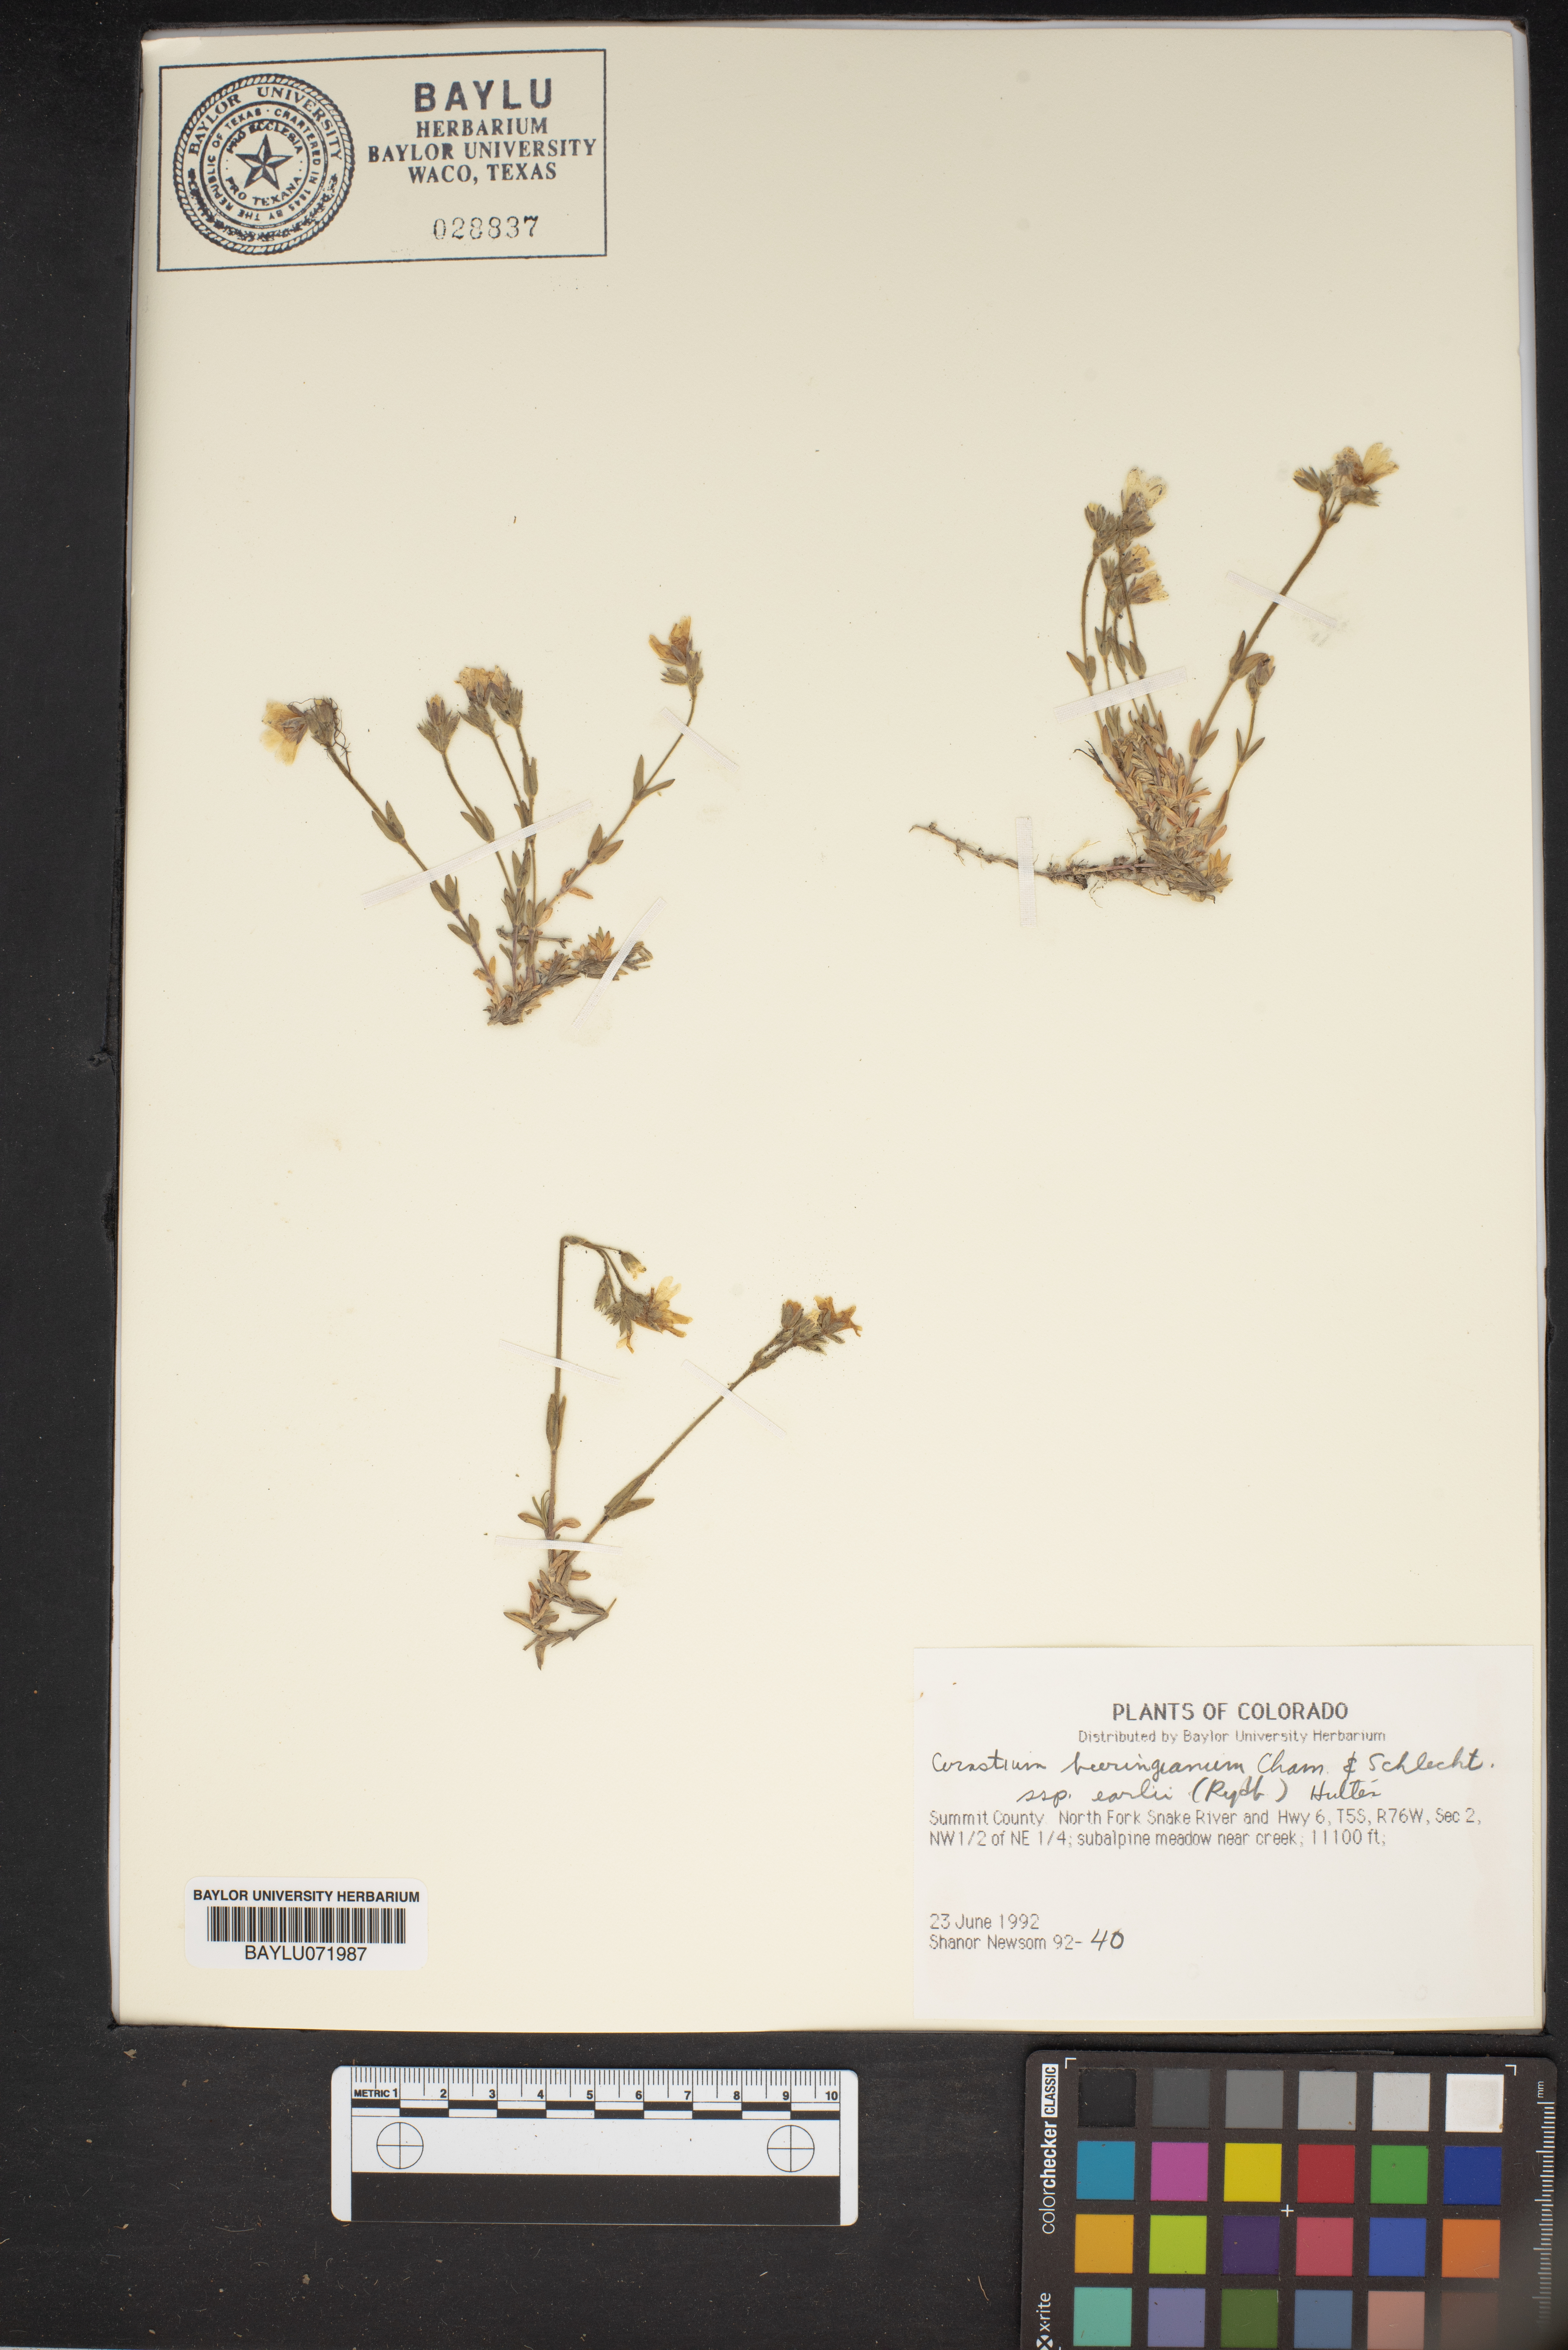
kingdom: Plantae
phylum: Tracheophyta
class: Magnoliopsida
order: Caryophyllales
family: Caryophyllaceae
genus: Cerastium
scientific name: Cerastium beeringianum
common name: Bering mouse-ear chickweed
